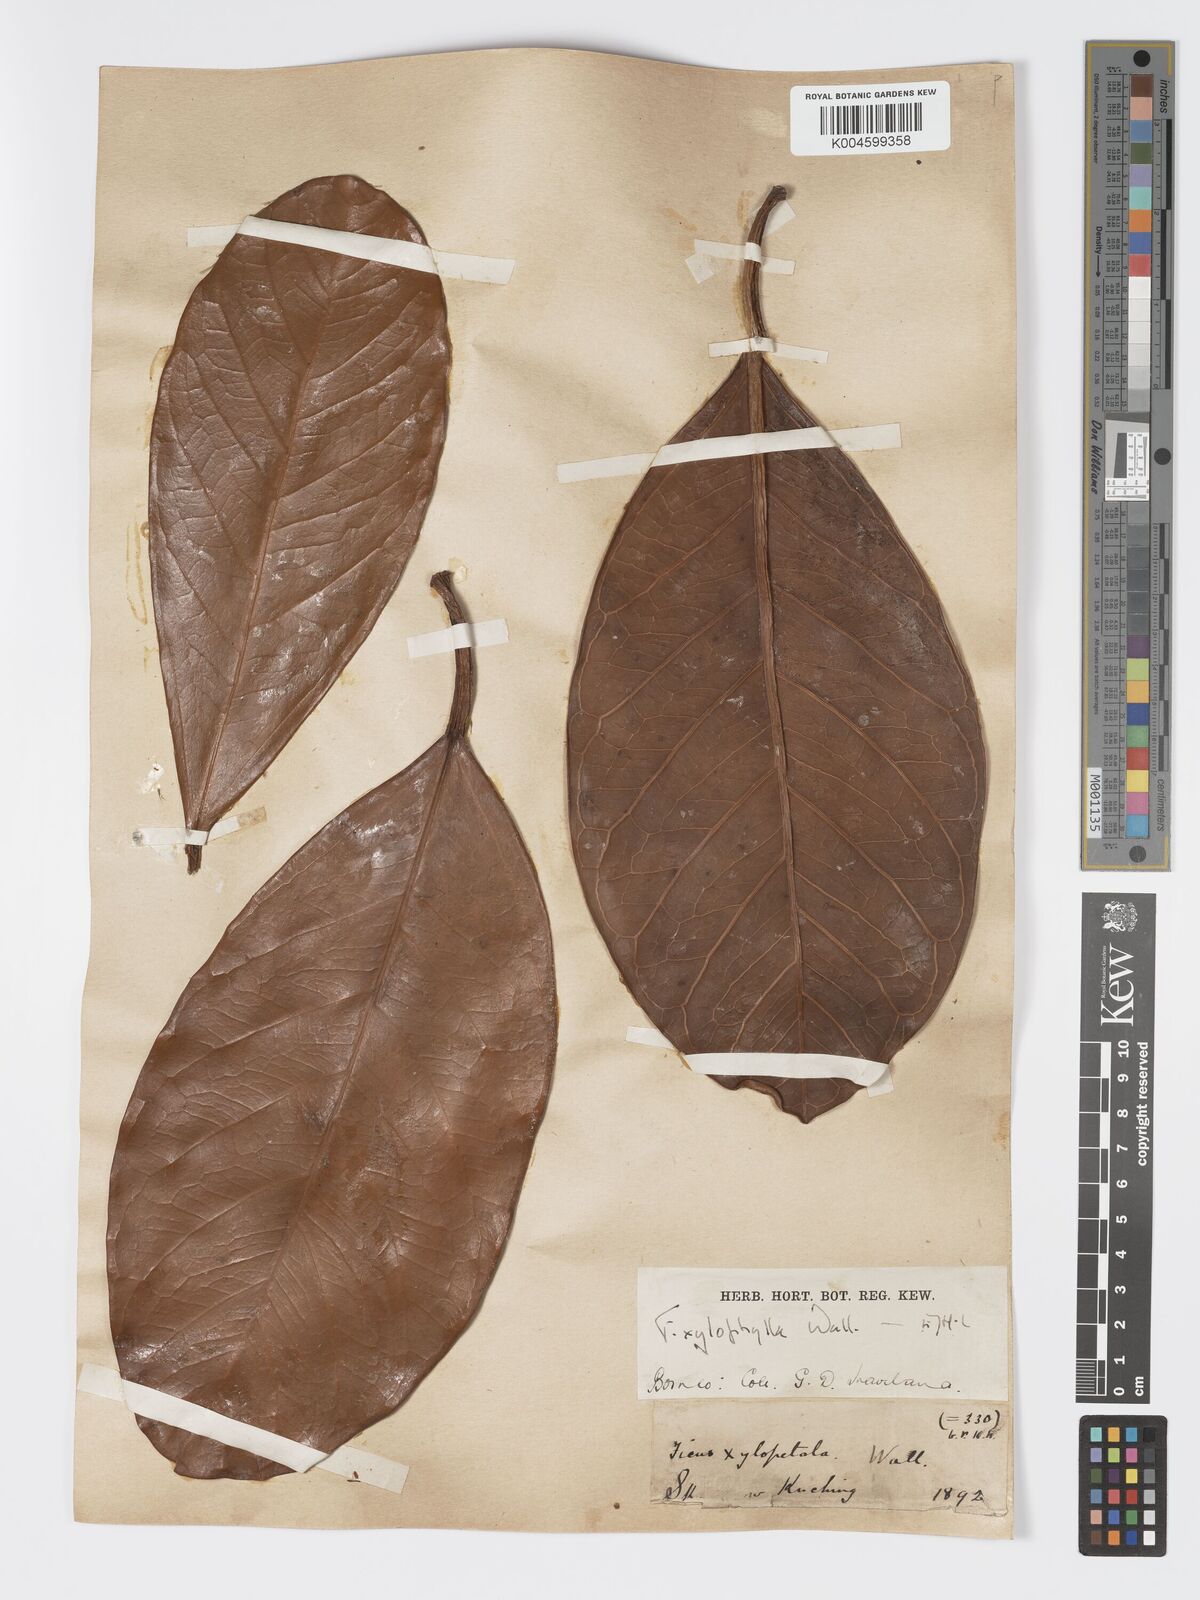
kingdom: Plantae
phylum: Tracheophyta
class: Magnoliopsida
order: Rosales
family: Moraceae
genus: Ficus
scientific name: Ficus xylophylla
